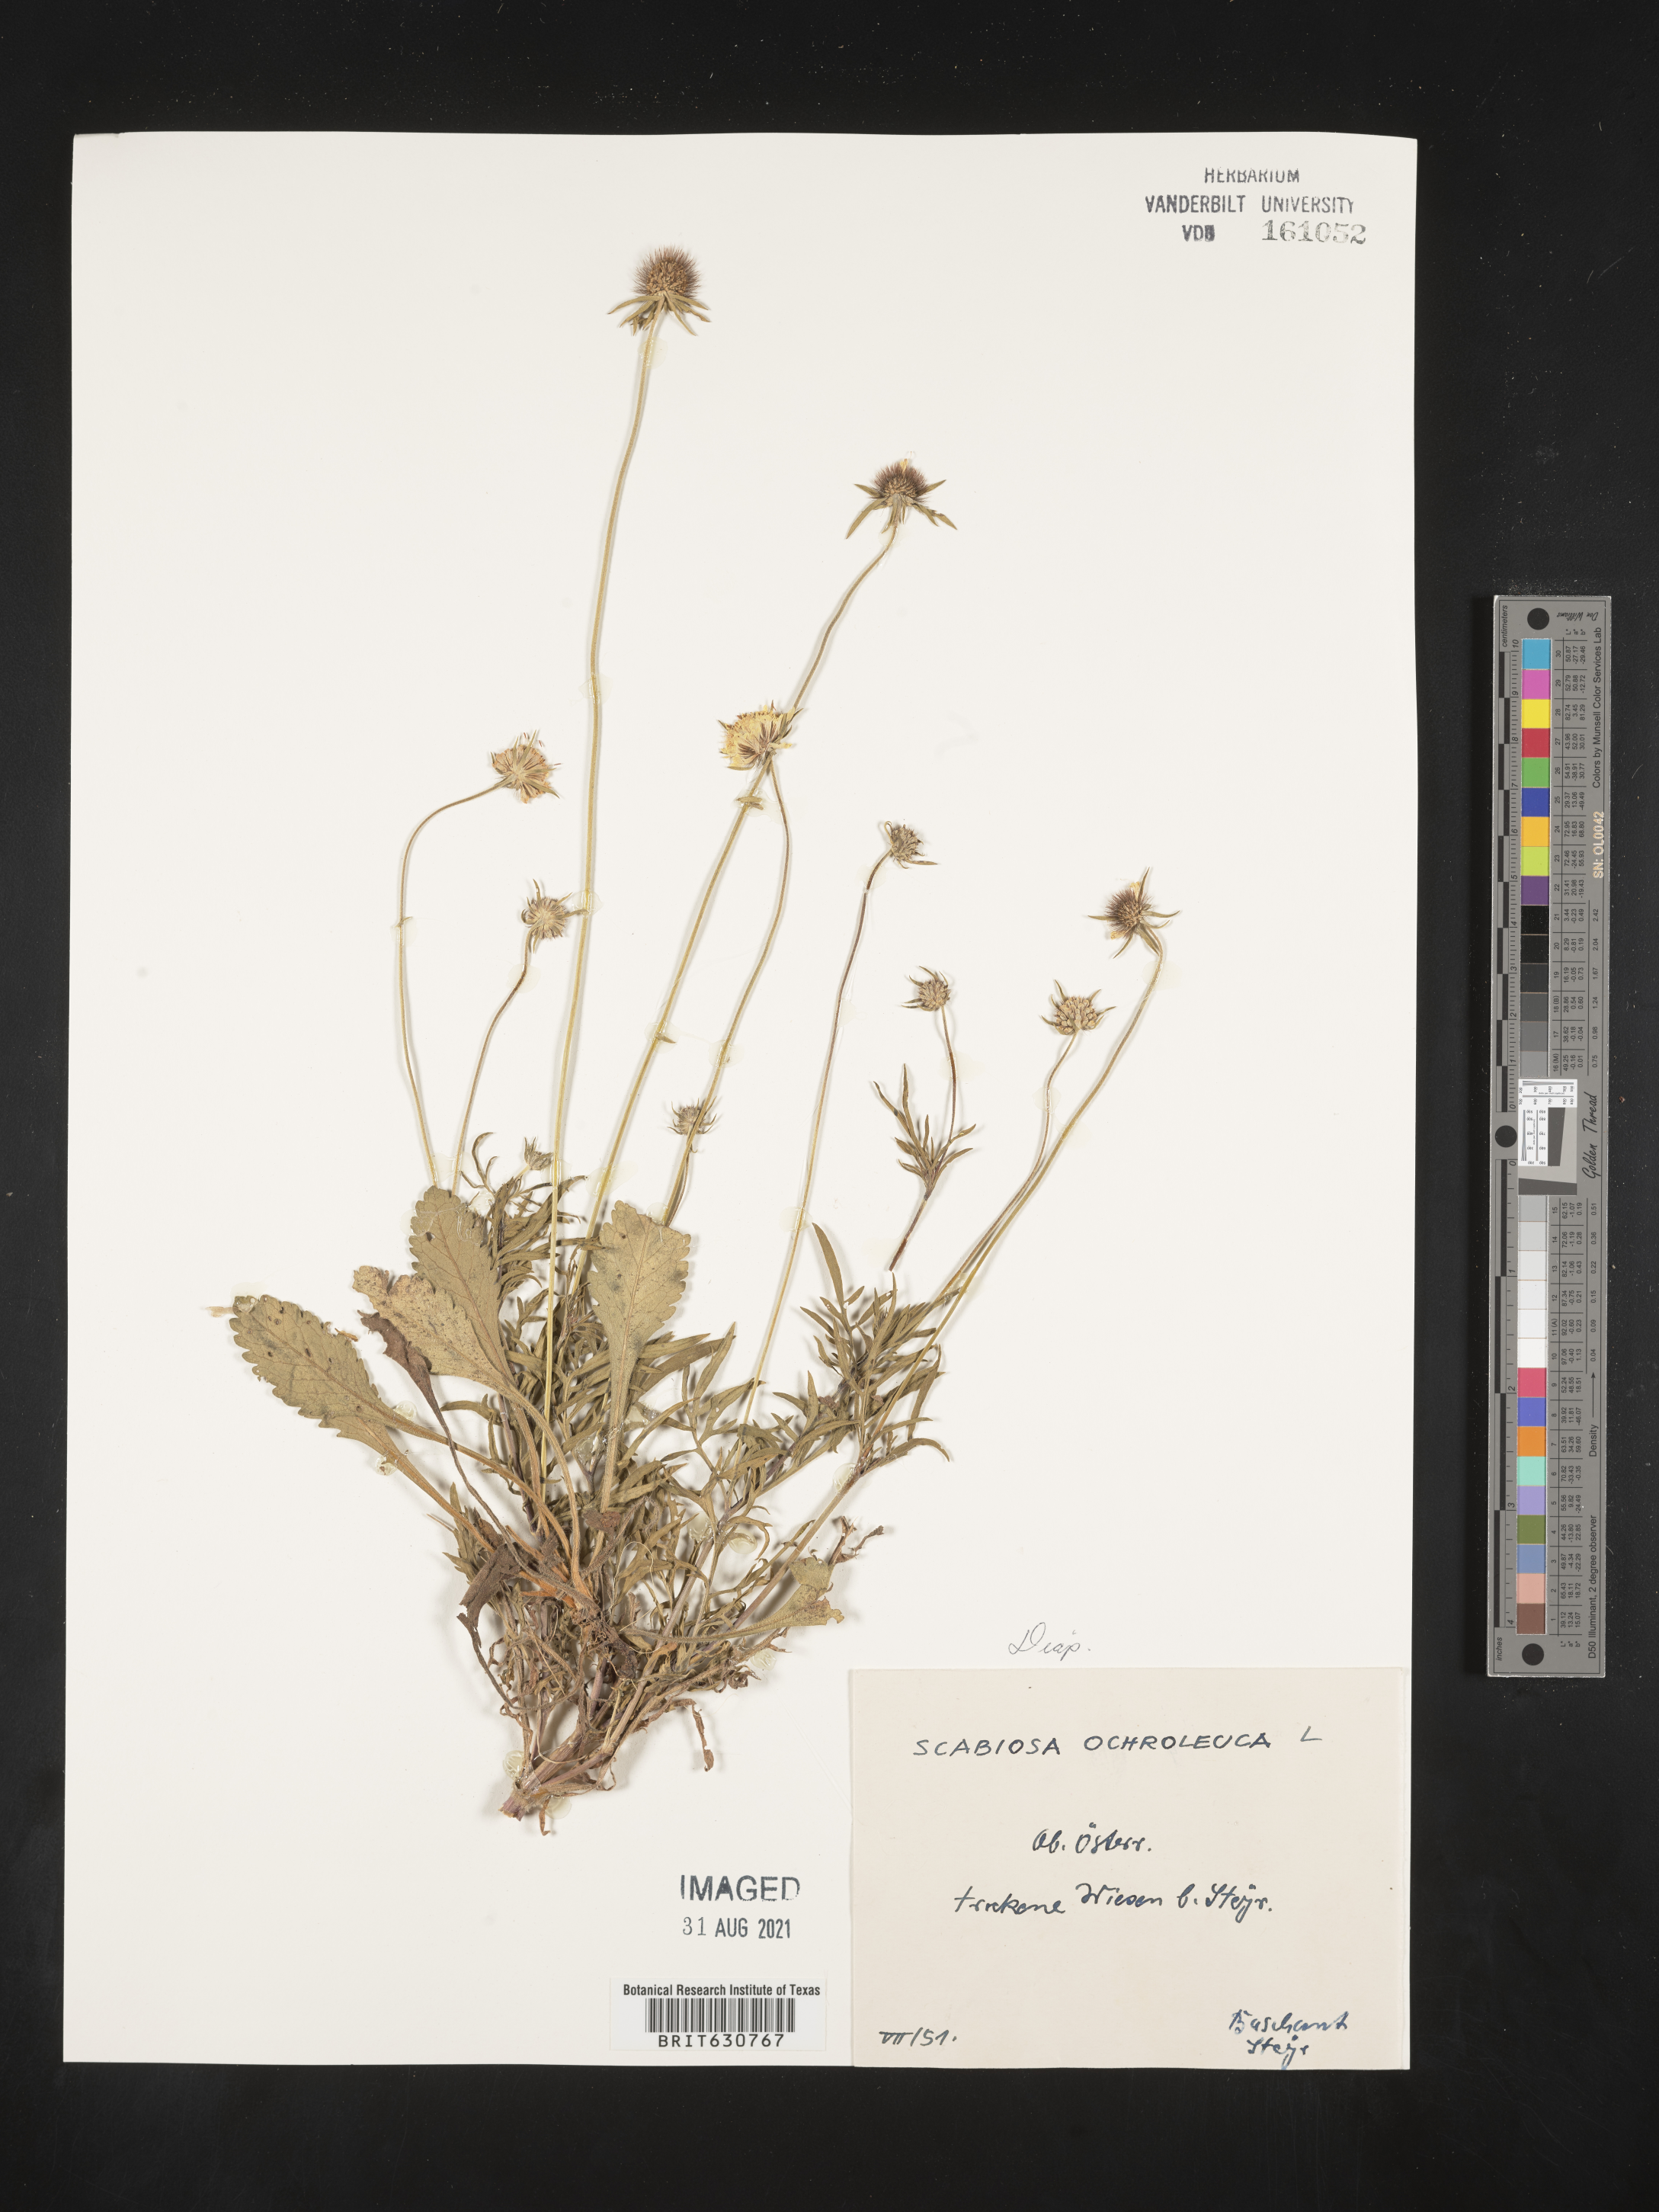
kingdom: Plantae
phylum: Tracheophyta
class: Magnoliopsida
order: Dipsacales
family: Caprifoliaceae
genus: Scabiosa
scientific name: Scabiosa
